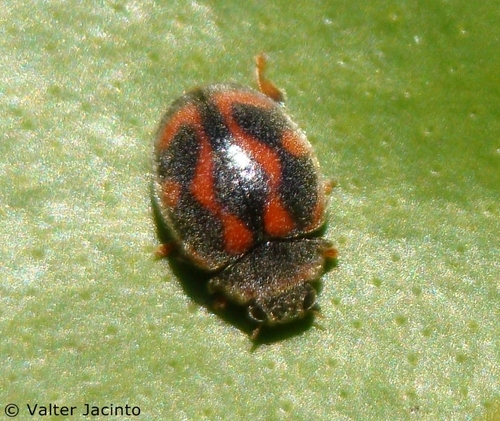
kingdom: Animalia
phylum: Arthropoda
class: Insecta
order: Coleoptera
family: Coccinellidae
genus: Rodolia
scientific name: Rodolia cardinalis
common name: Vedalia ladybird beetle
